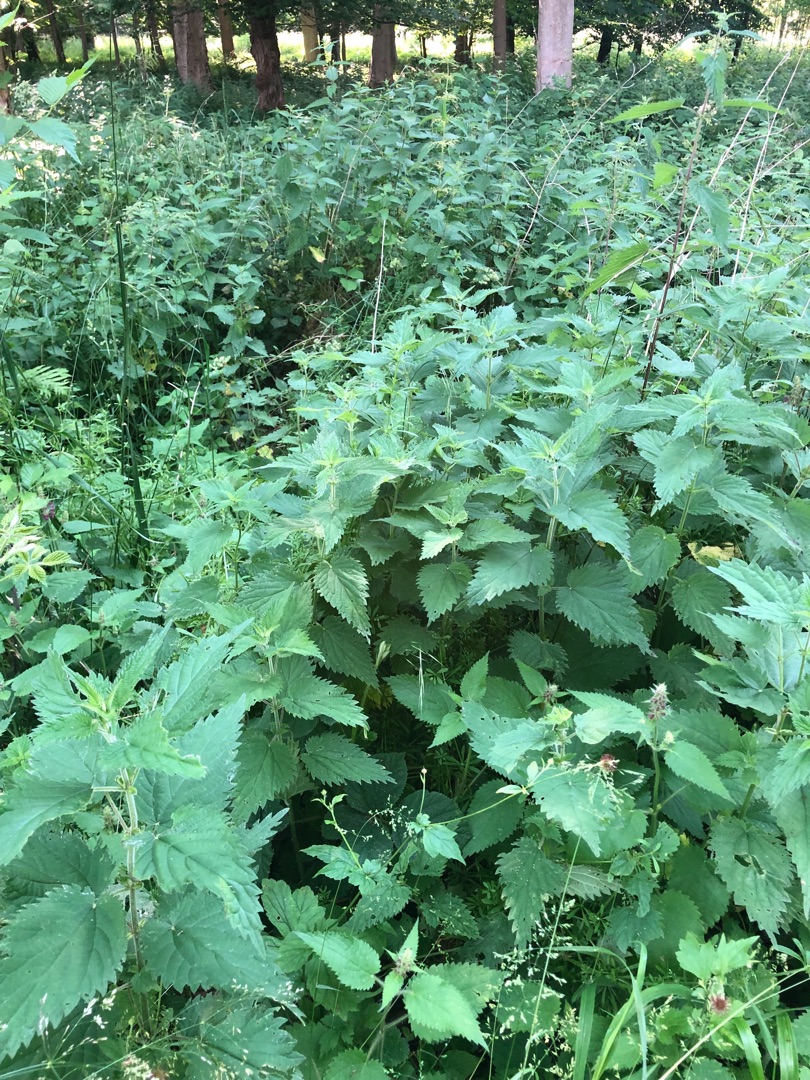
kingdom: Plantae
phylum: Tracheophyta
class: Magnoliopsida
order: Rosales
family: Urticaceae
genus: Urtica
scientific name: Urtica dioica
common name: Stor nælde
